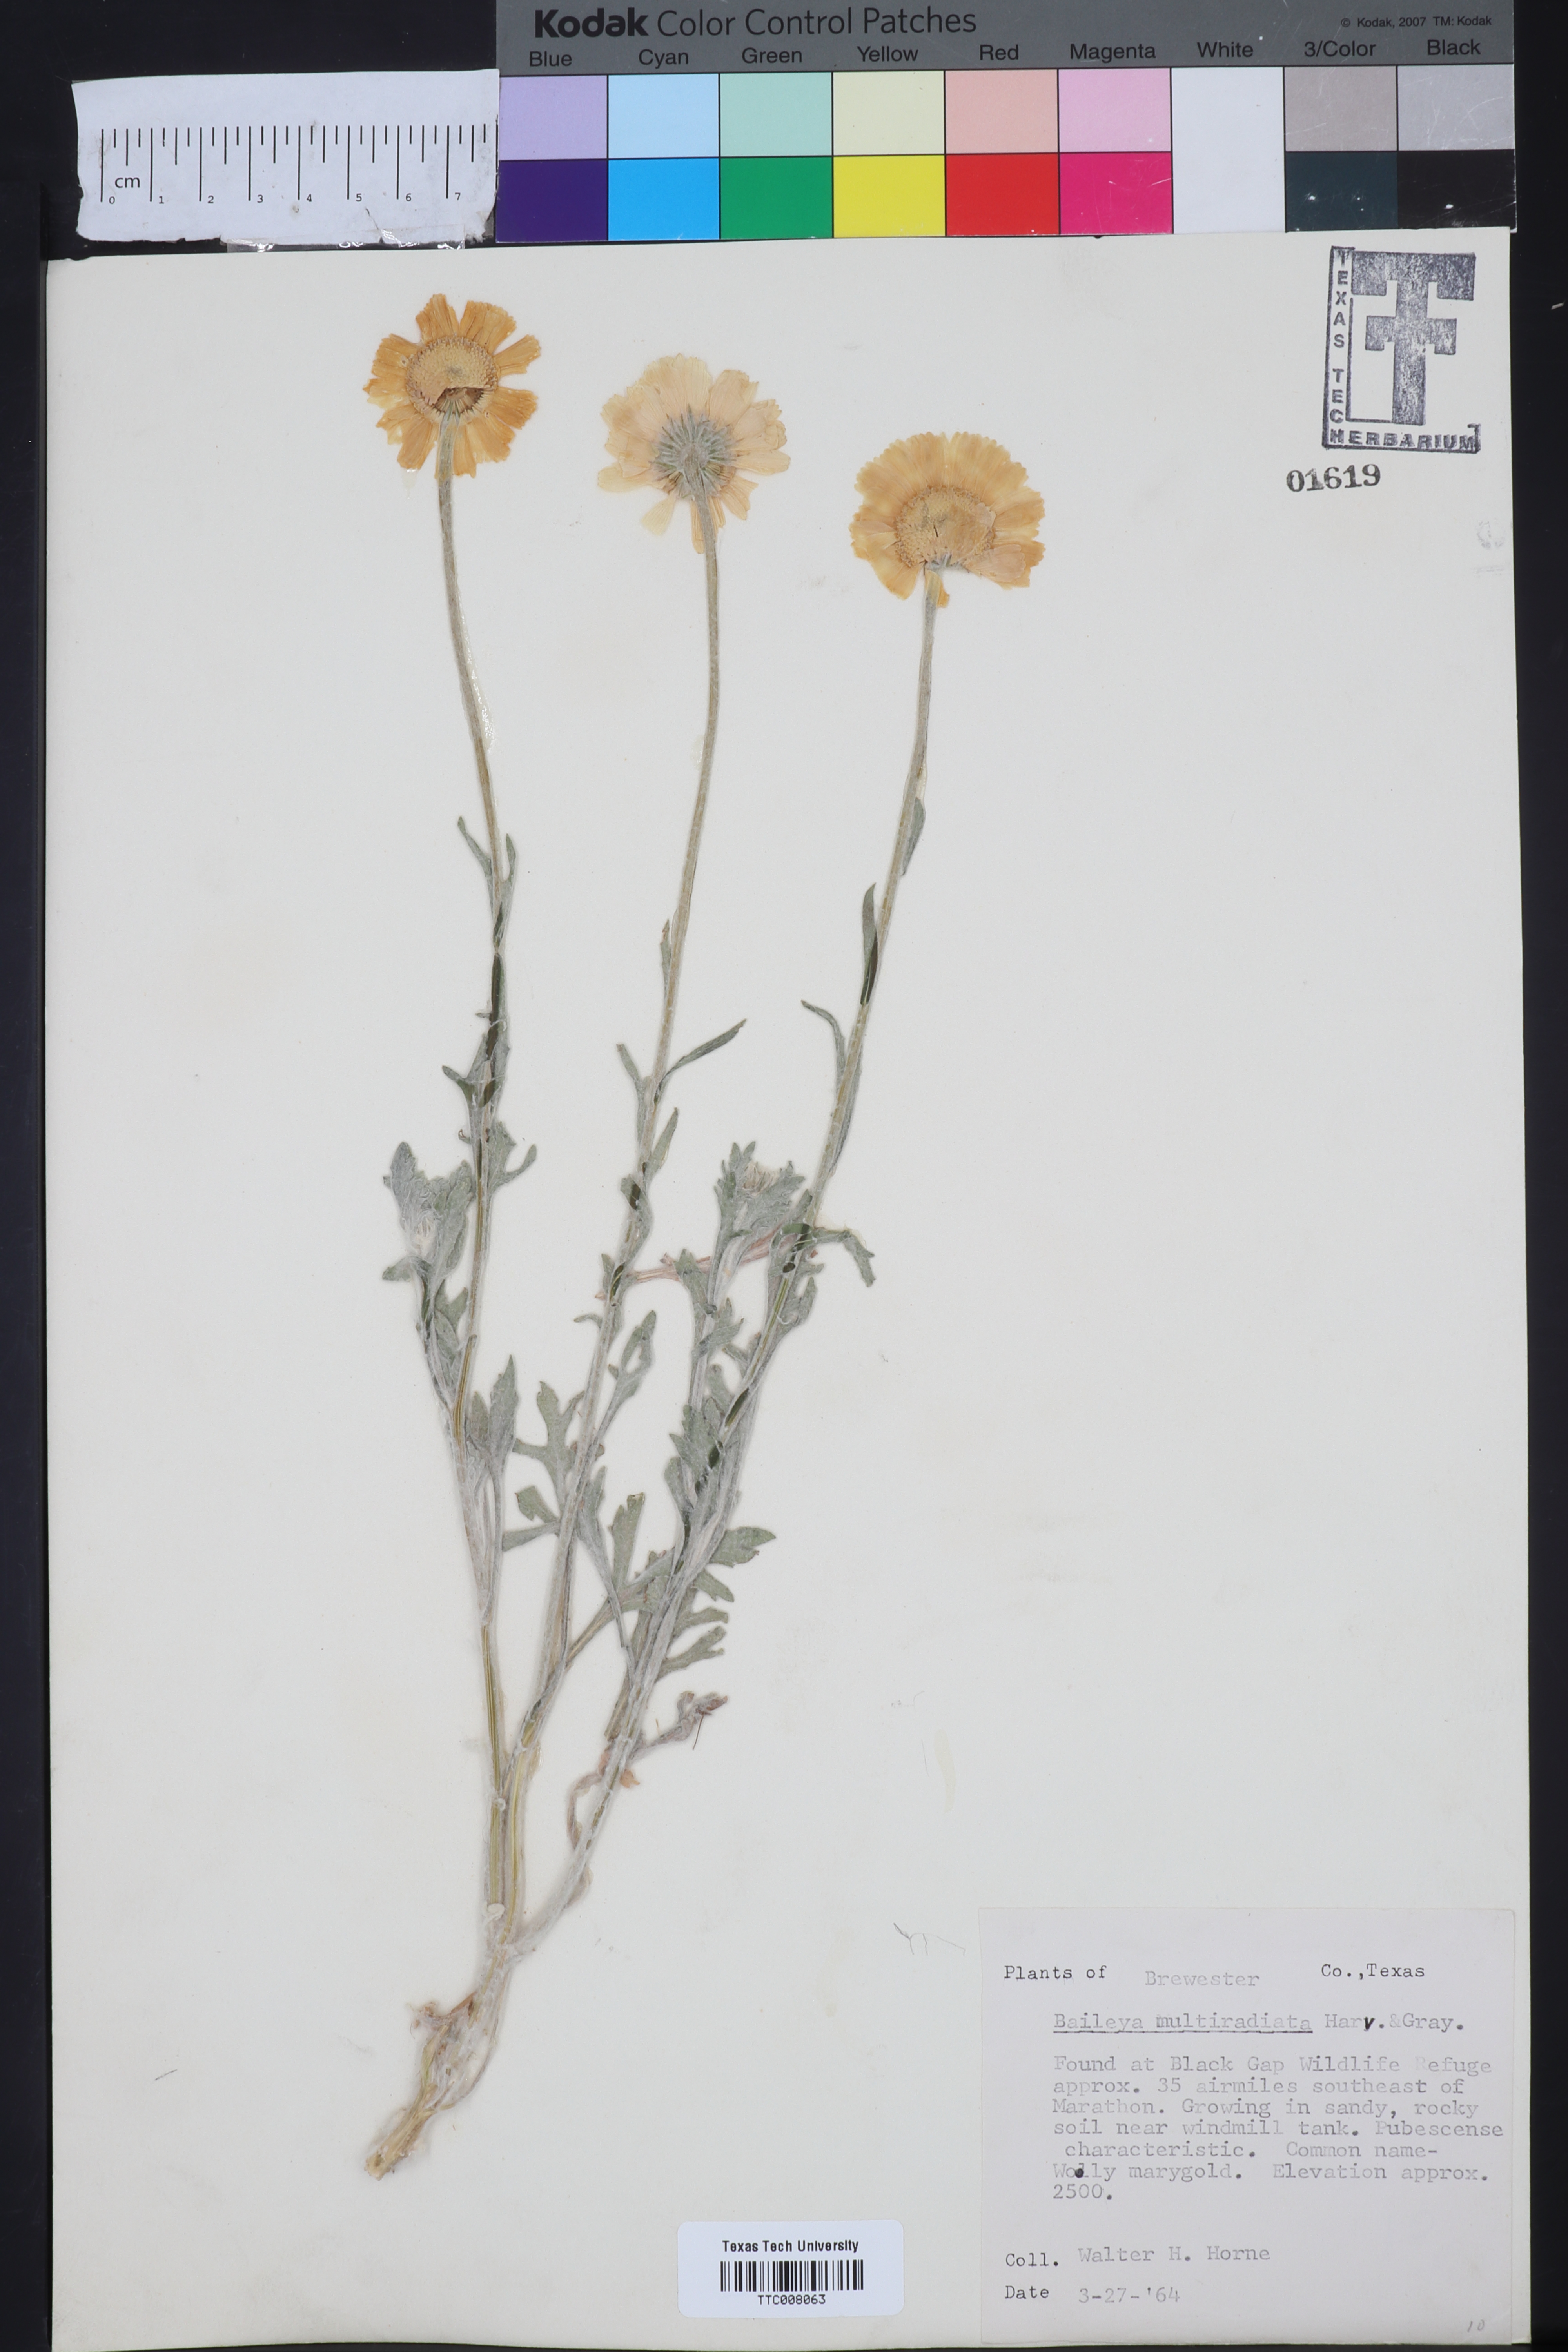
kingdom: Plantae
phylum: Tracheophyta
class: Magnoliopsida
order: Asterales
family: Asteraceae
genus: Baileya
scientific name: Baileya multiradiata
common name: Desert-marigold
